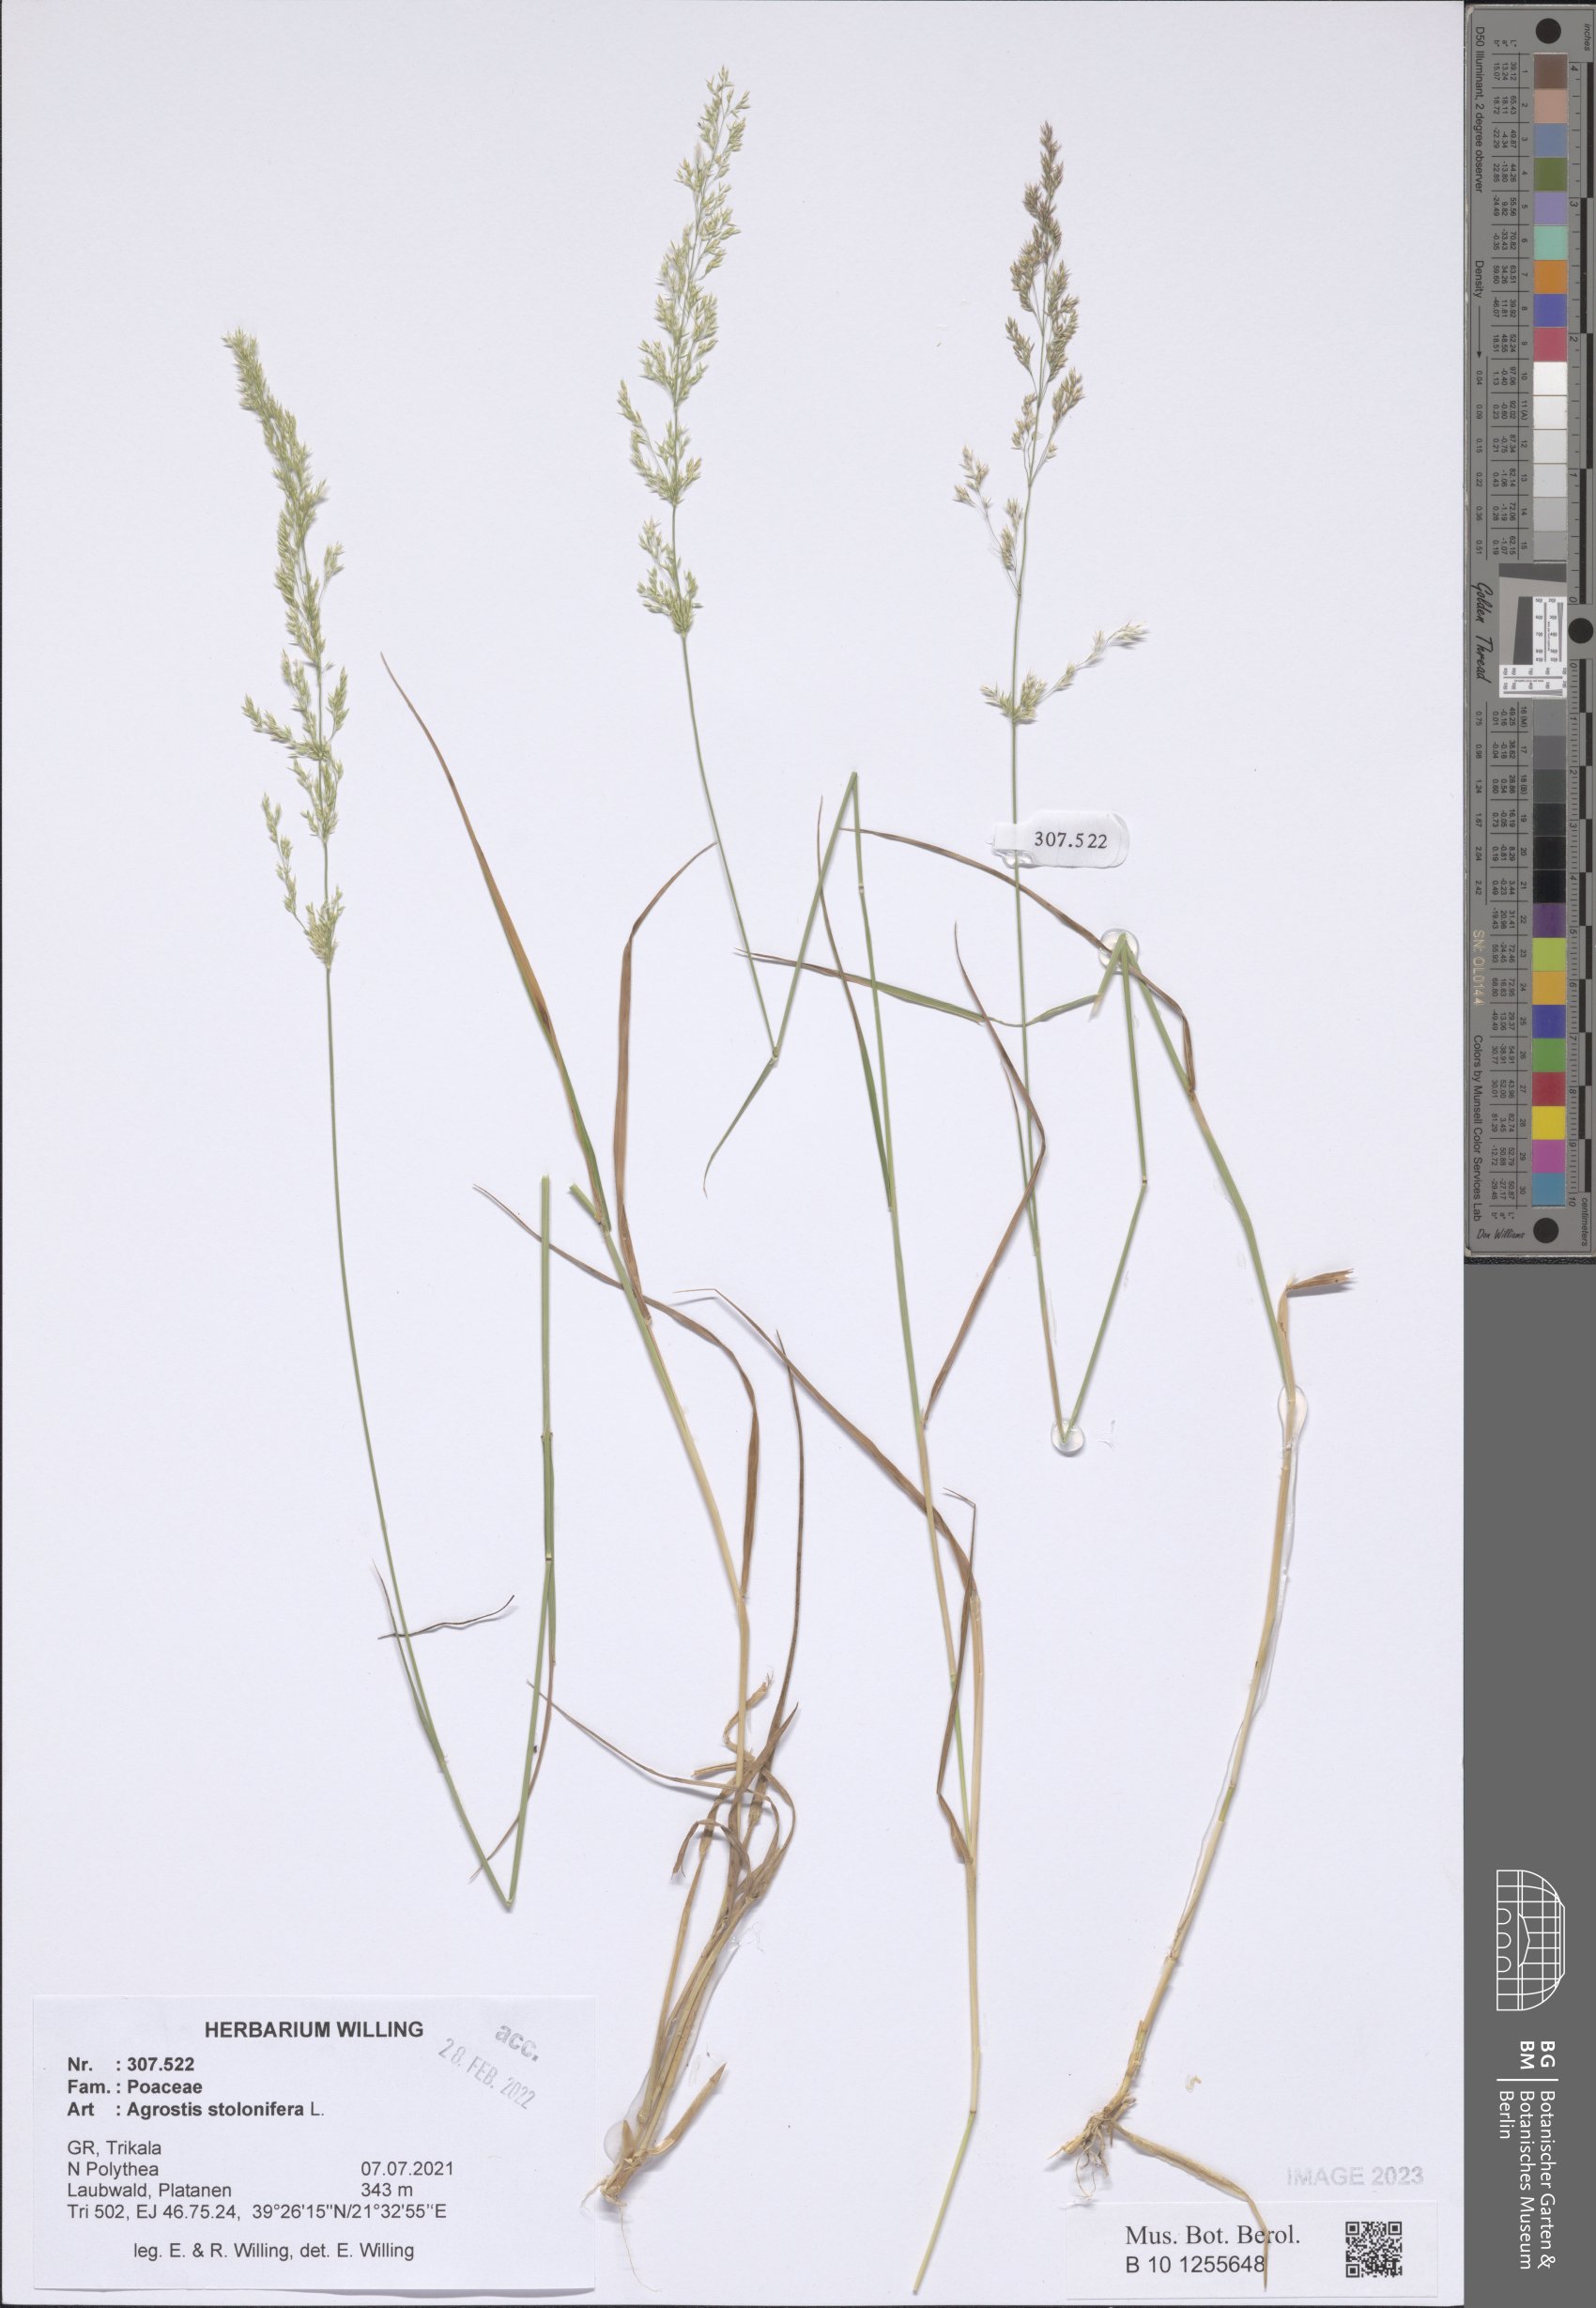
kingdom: Plantae
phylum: Tracheophyta
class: Liliopsida
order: Poales
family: Poaceae
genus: Agrostis
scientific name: Agrostis stolonifera
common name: Creeping bentgrass
